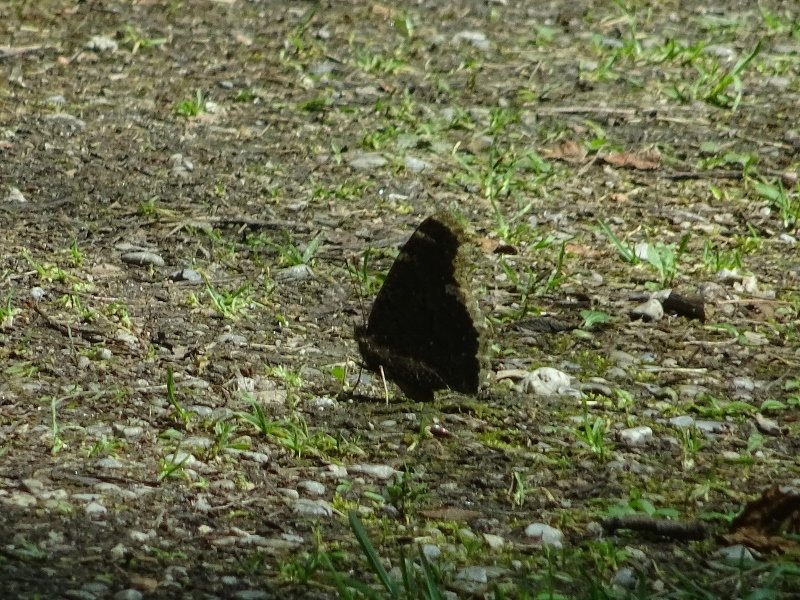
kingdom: Animalia
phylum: Arthropoda
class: Insecta
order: Lepidoptera
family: Nymphalidae
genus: Nymphalis
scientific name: Nymphalis antiopa
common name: Mourning Cloak
